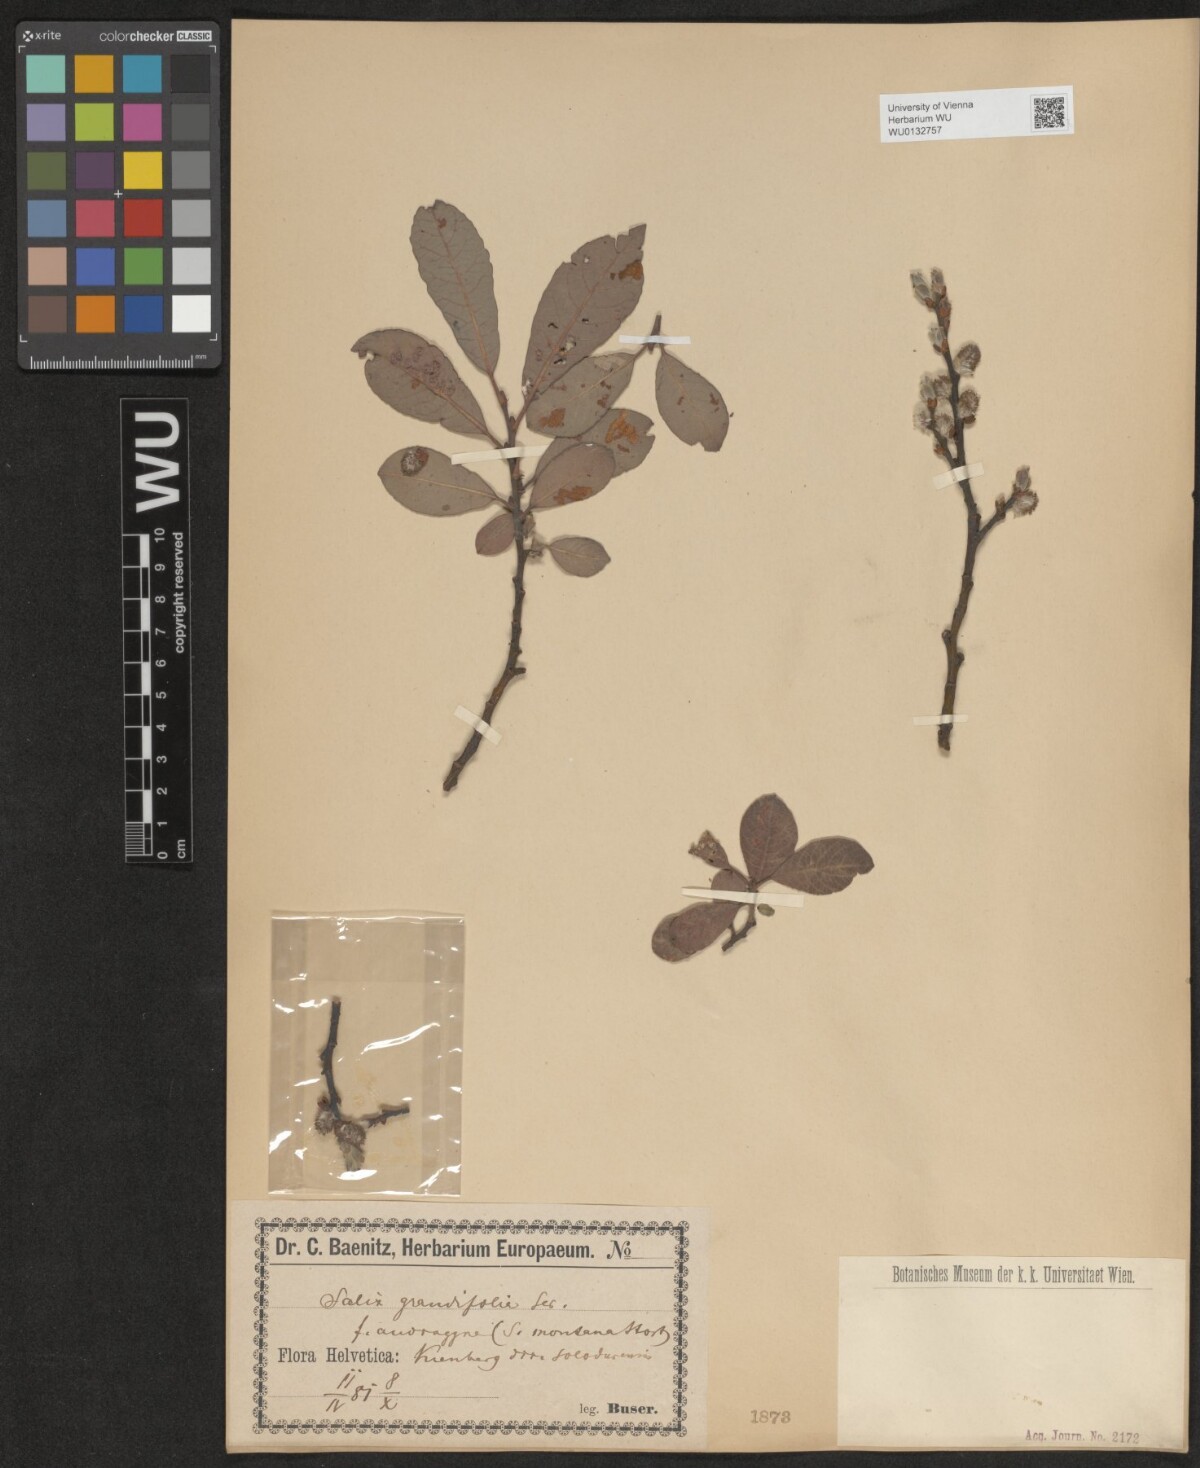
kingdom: Plantae
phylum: Tracheophyta
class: Magnoliopsida
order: Malpighiales
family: Salicaceae
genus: Salix
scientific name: Salix appendiculata
